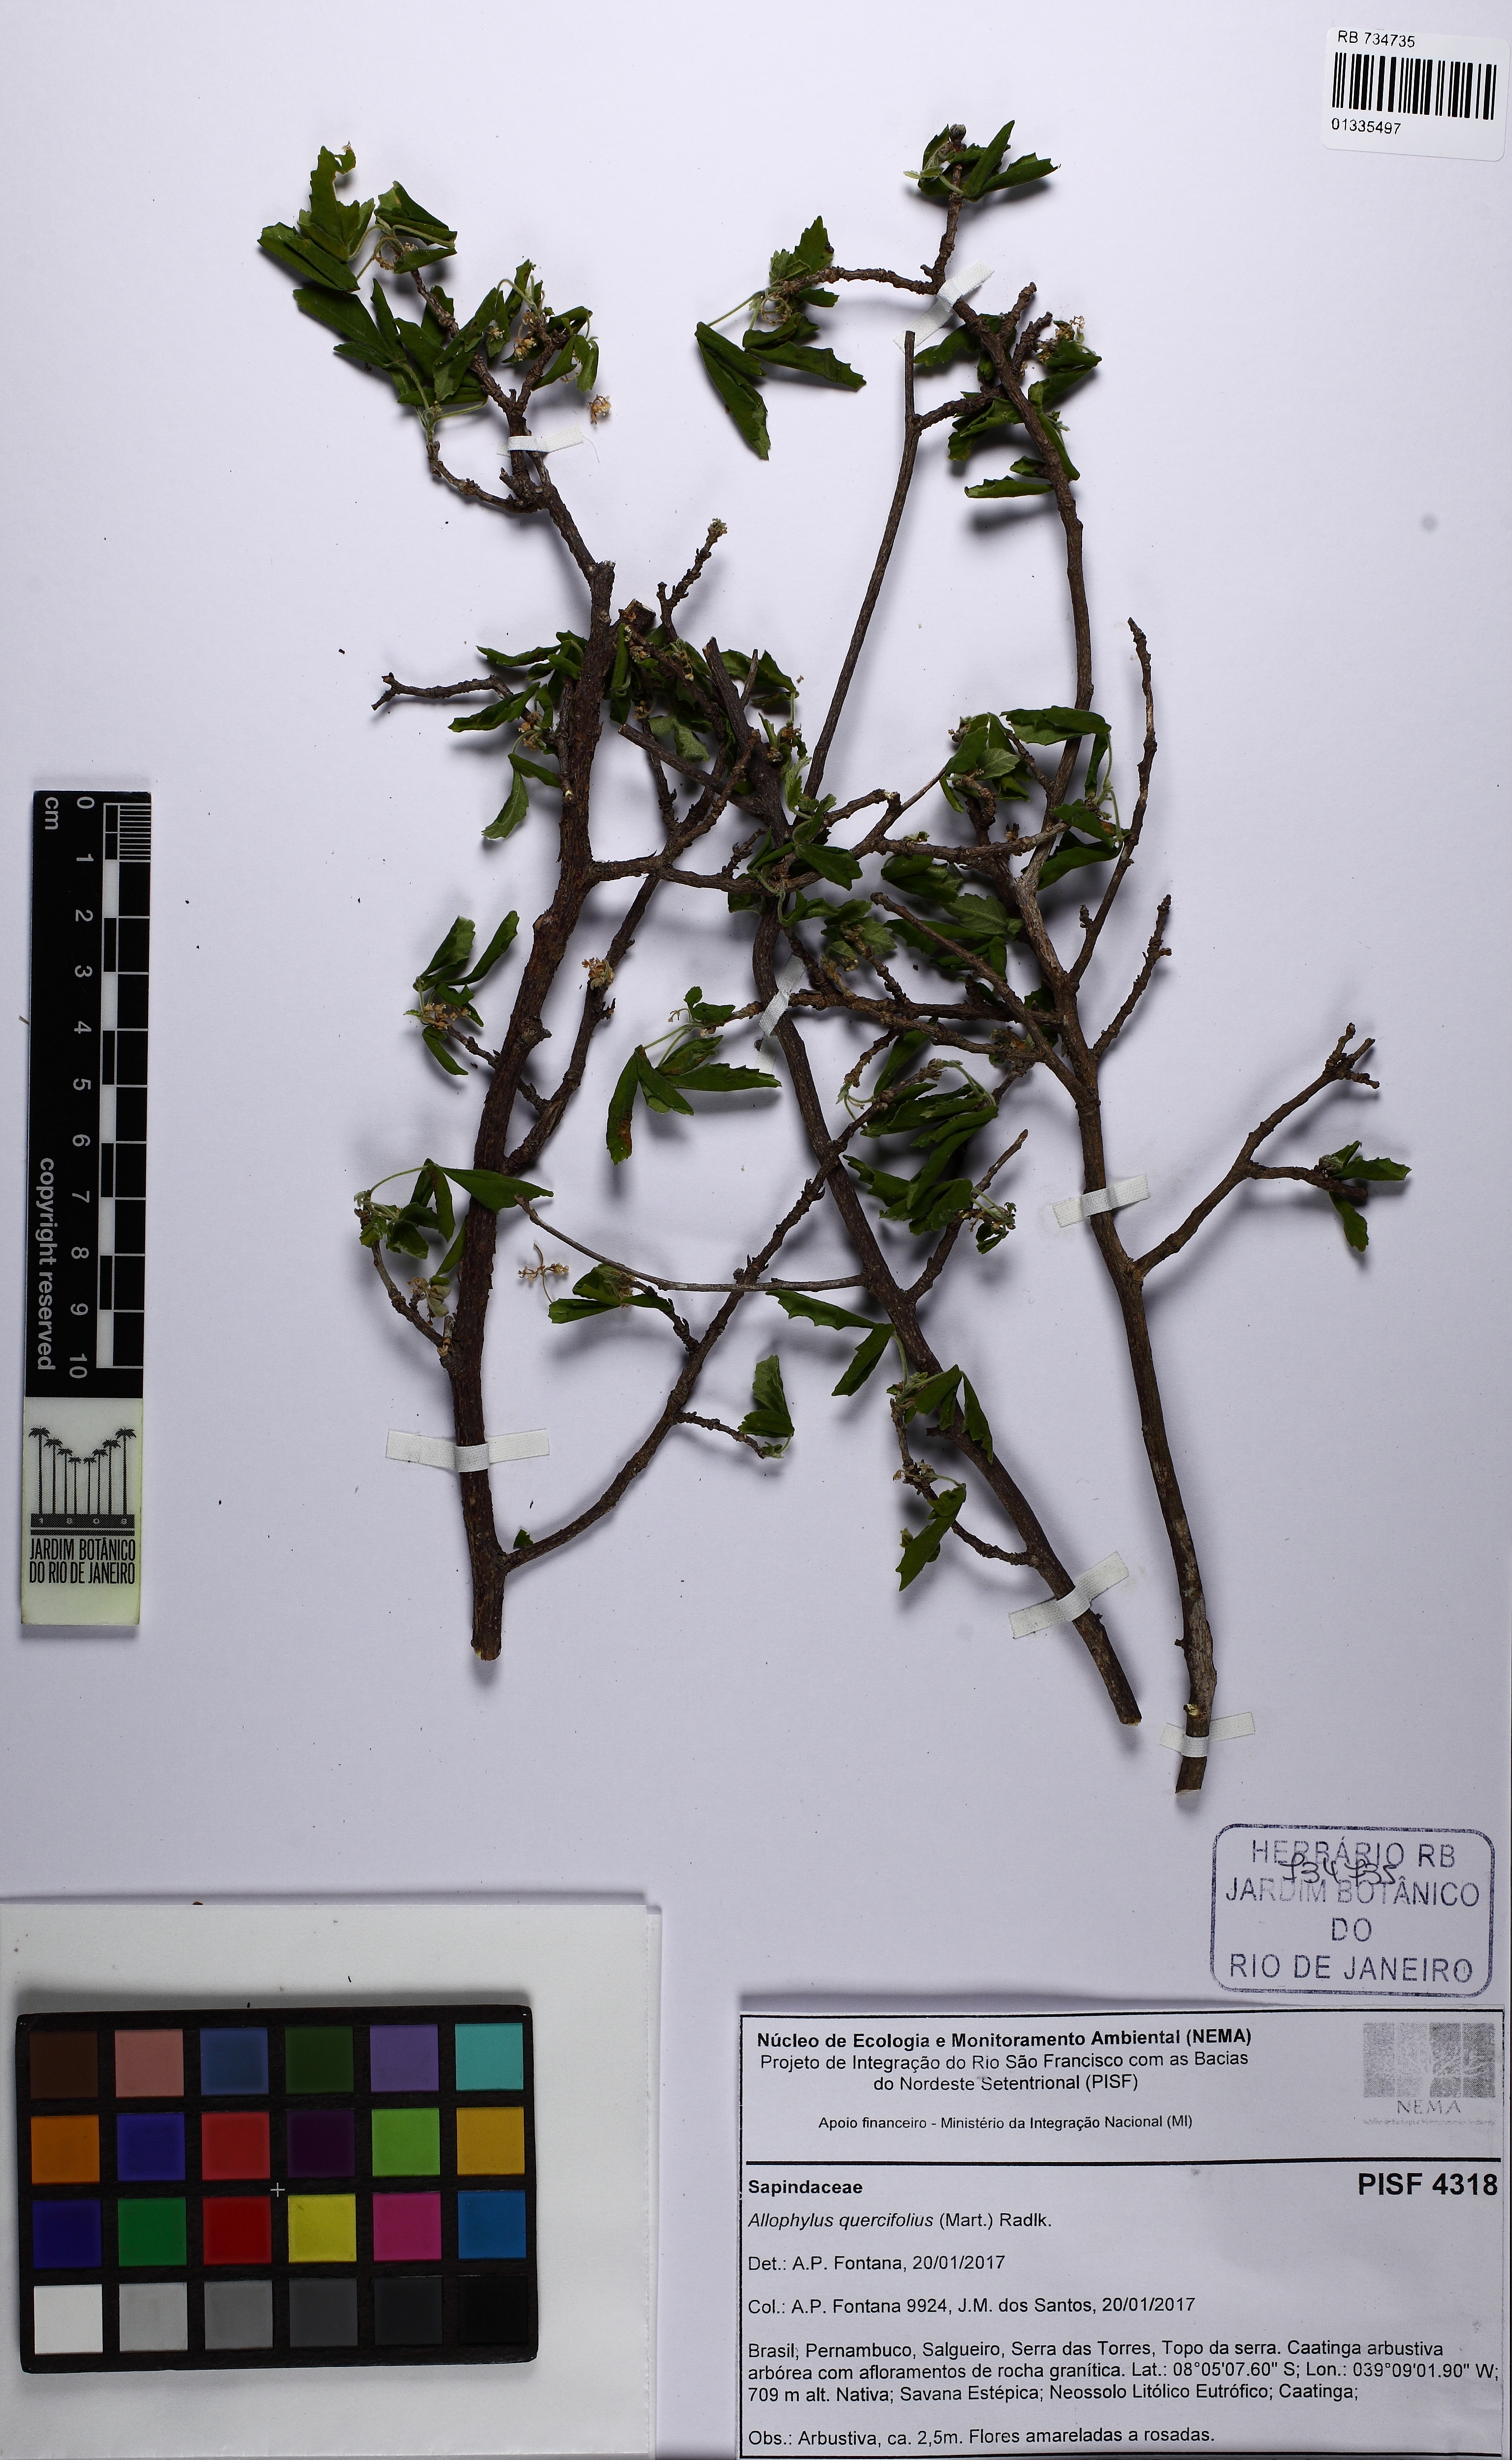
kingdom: Plantae
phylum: Tracheophyta
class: Magnoliopsida
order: Sapindales
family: Sapindaceae
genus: Allophylus
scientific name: Allophylus quercifolius
